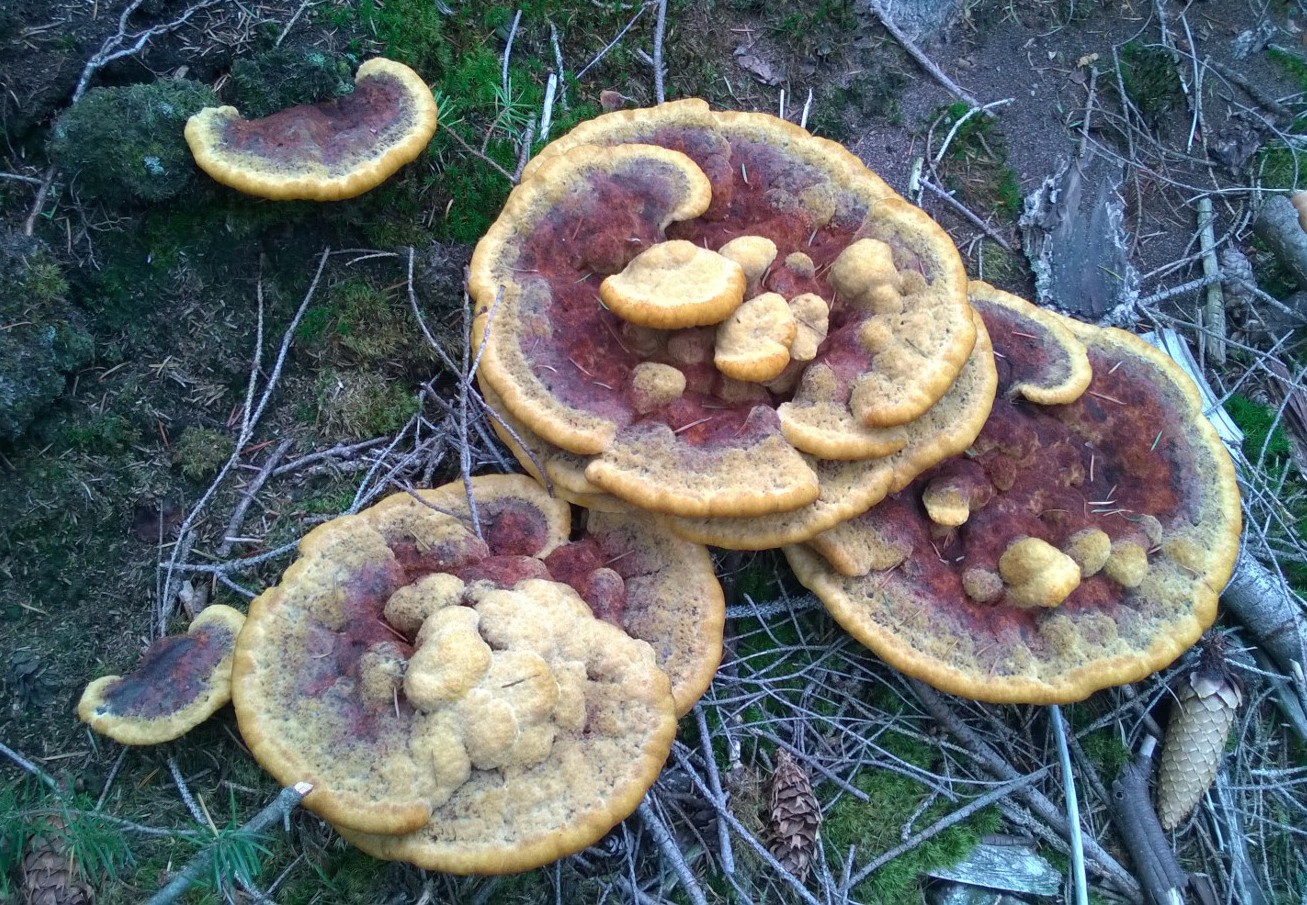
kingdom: Fungi
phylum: Basidiomycota
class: Agaricomycetes
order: Polyporales
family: Laetiporaceae
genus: Phaeolus
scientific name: Phaeolus schweinitzii
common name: brunporesvamp
